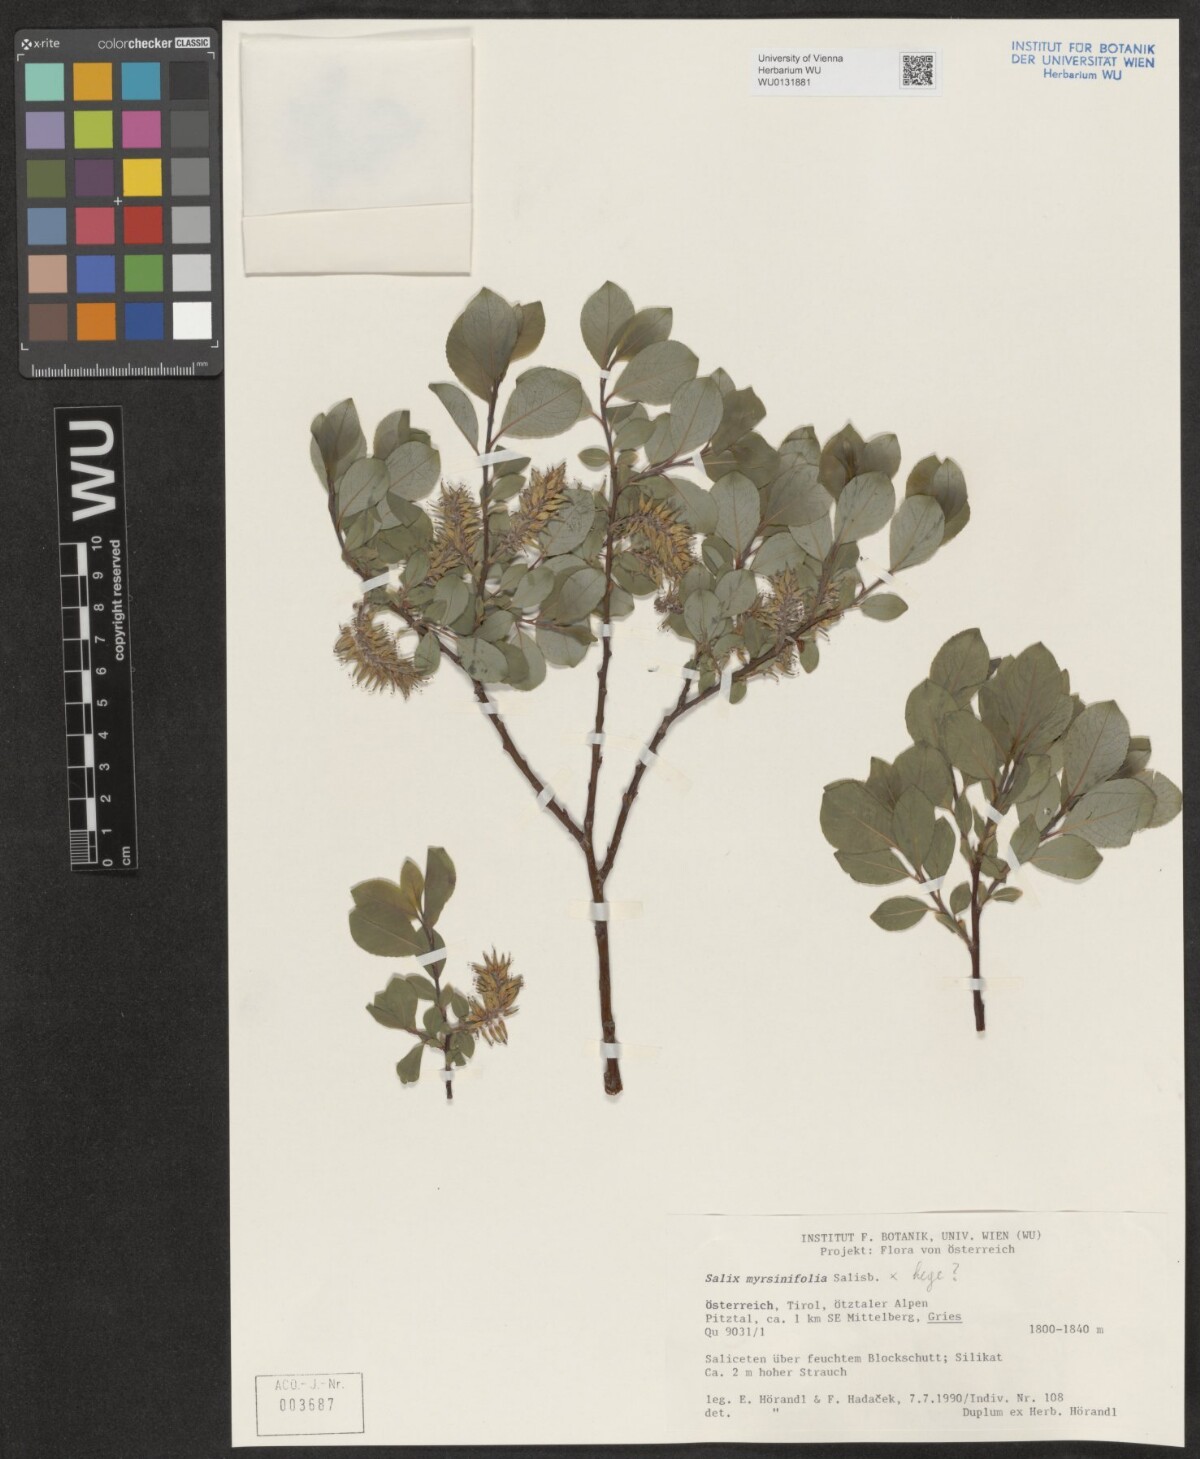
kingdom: Plantae
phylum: Tracheophyta
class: Magnoliopsida
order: Malpighiales
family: Salicaceae
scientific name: Salicaceae
